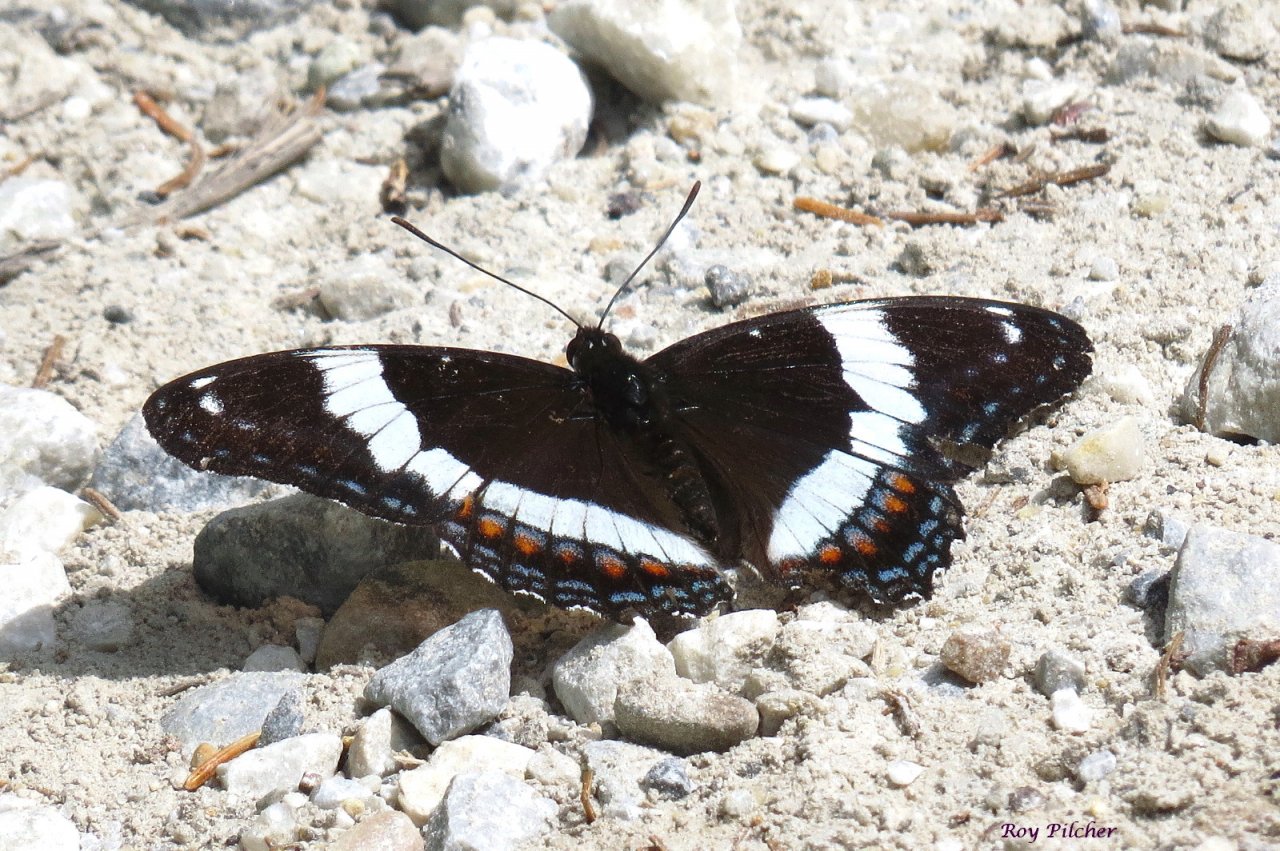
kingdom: Animalia
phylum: Arthropoda
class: Insecta
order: Lepidoptera
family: Nymphalidae
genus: Limenitis
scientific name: Limenitis arthemis
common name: Red-spotted Admiral
